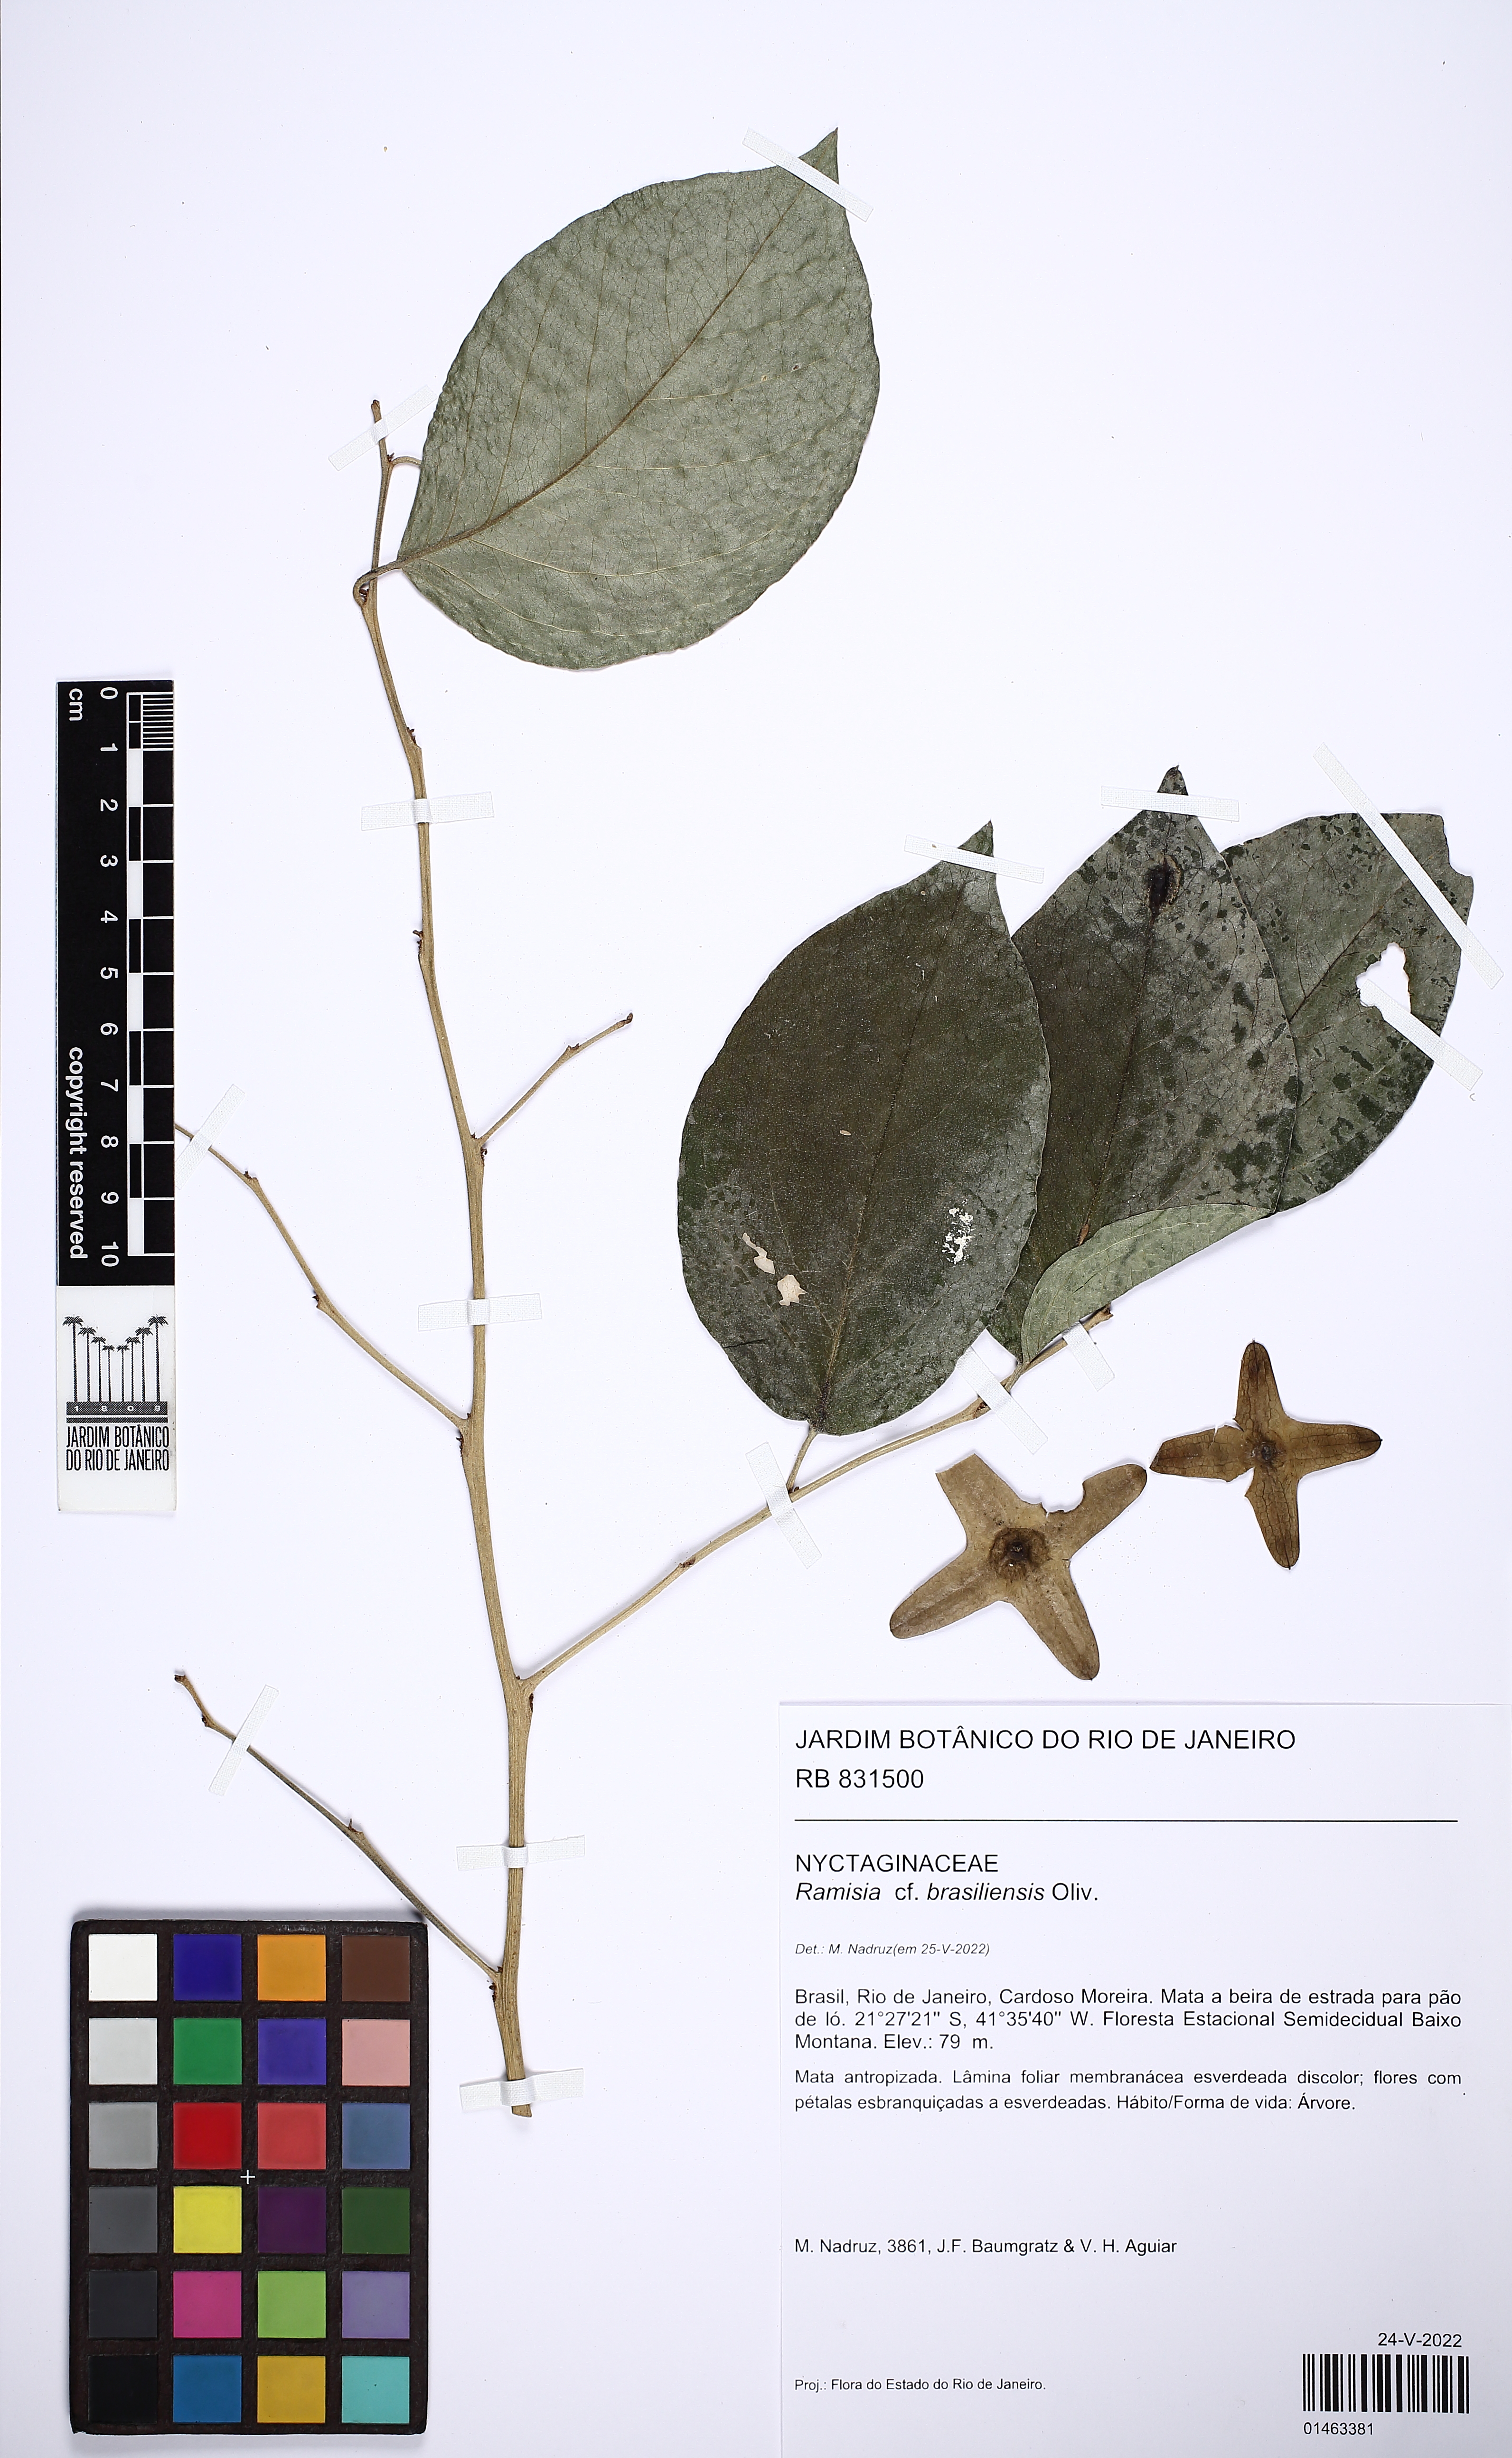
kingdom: Plantae
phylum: Tracheophyta
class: Magnoliopsida
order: Caryophyllales
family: Nyctaginaceae
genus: Ramisia
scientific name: Ramisia brasiliensis
